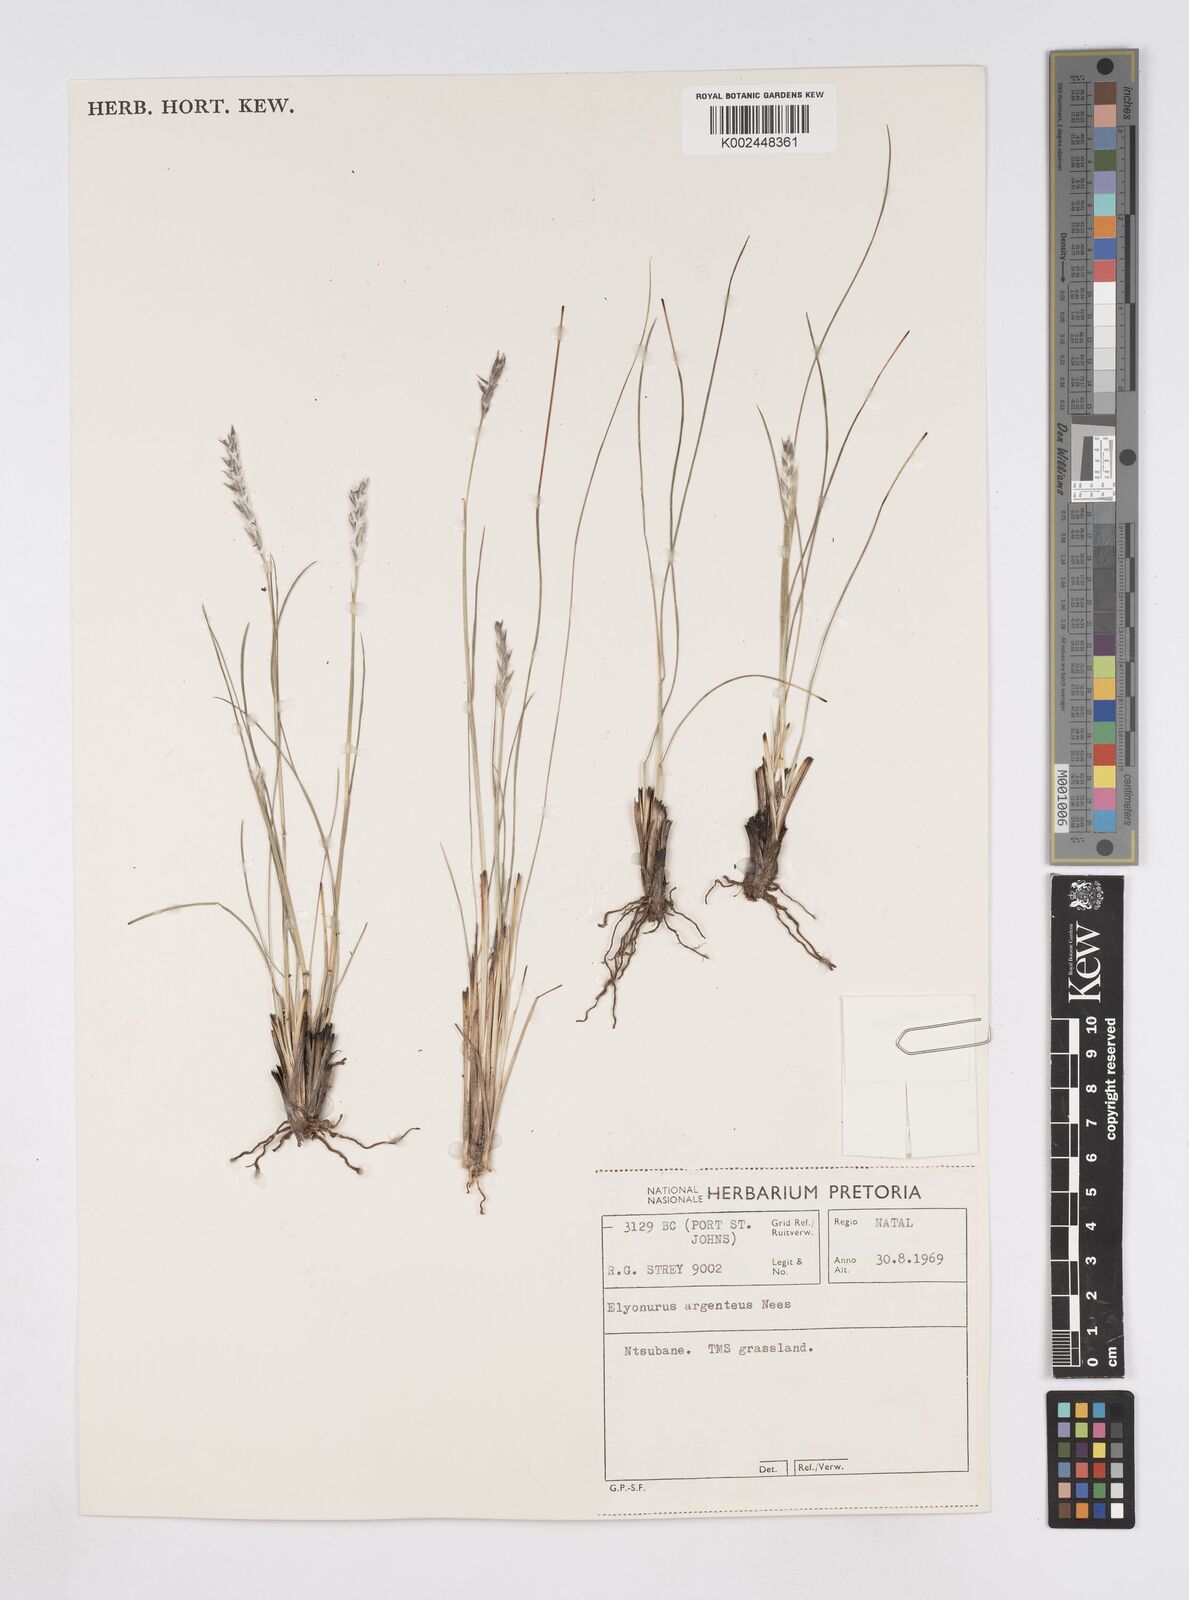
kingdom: Plantae
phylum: Tracheophyta
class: Liliopsida
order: Poales
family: Poaceae
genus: Elionurus
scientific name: Elionurus muticus
